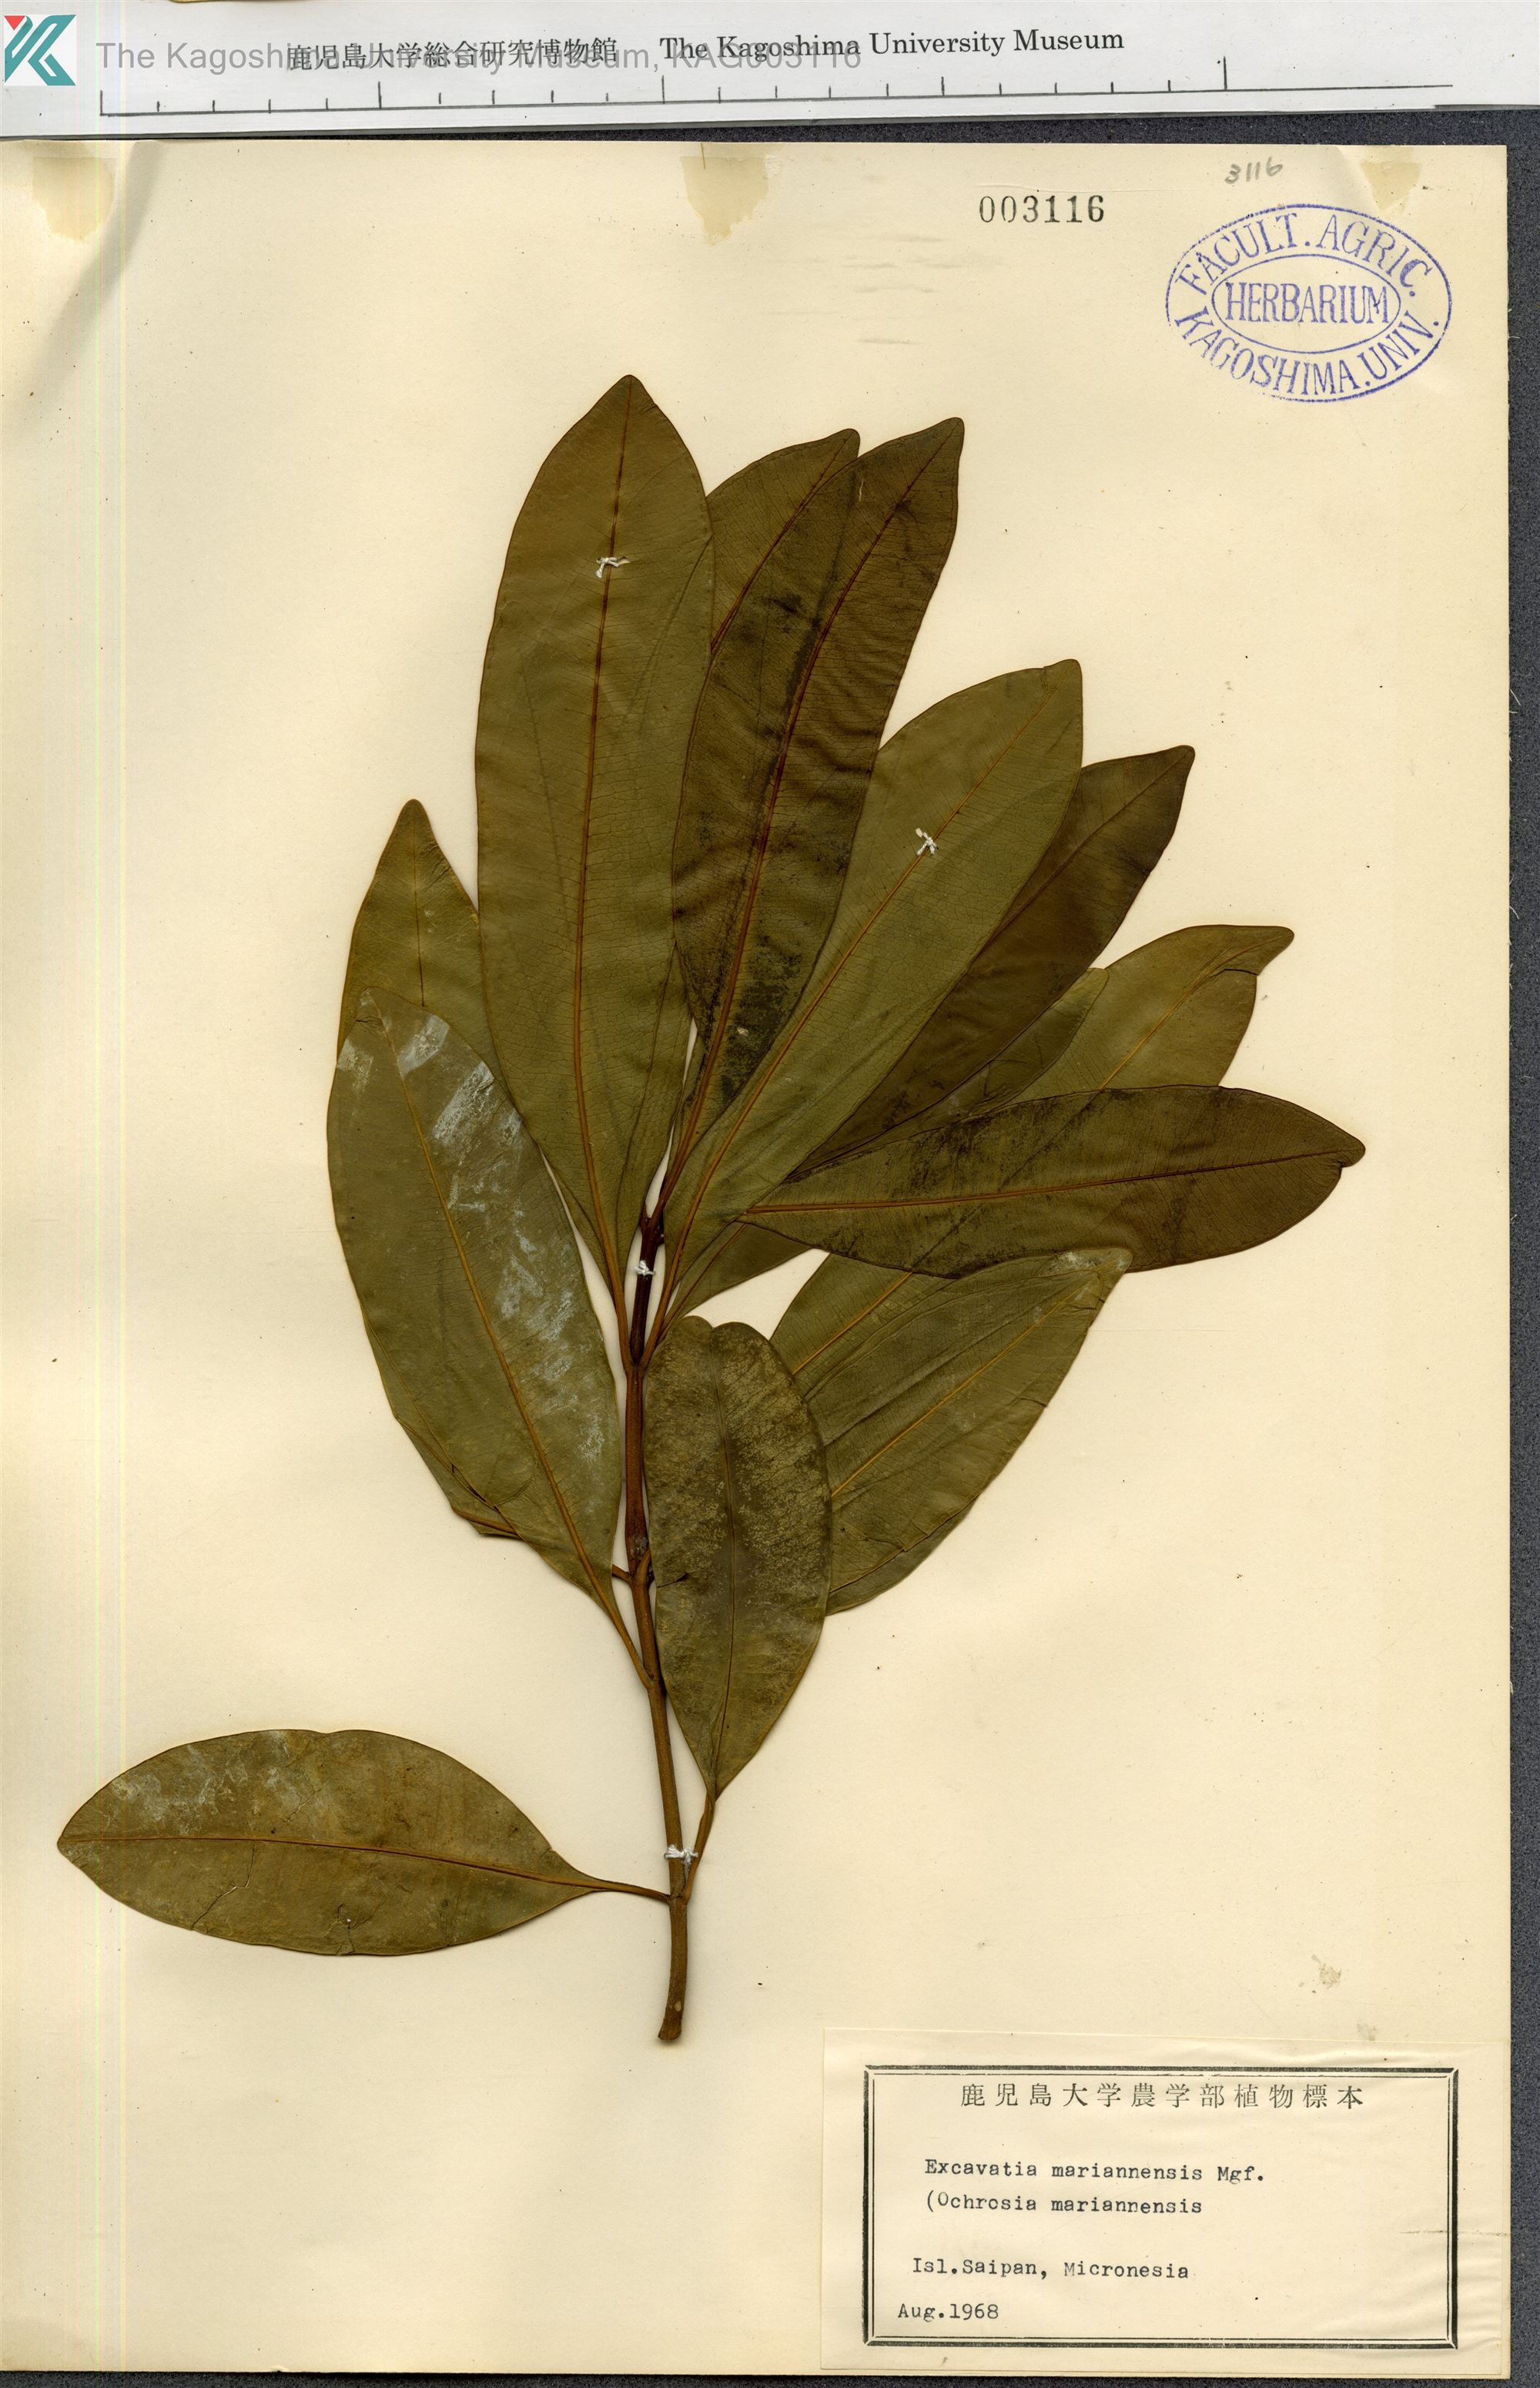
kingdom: Plantae
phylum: Tracheophyta
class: Magnoliopsida
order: Gentianales
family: Apocynaceae
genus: Ochrosia
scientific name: Ochrosia mariannensis
